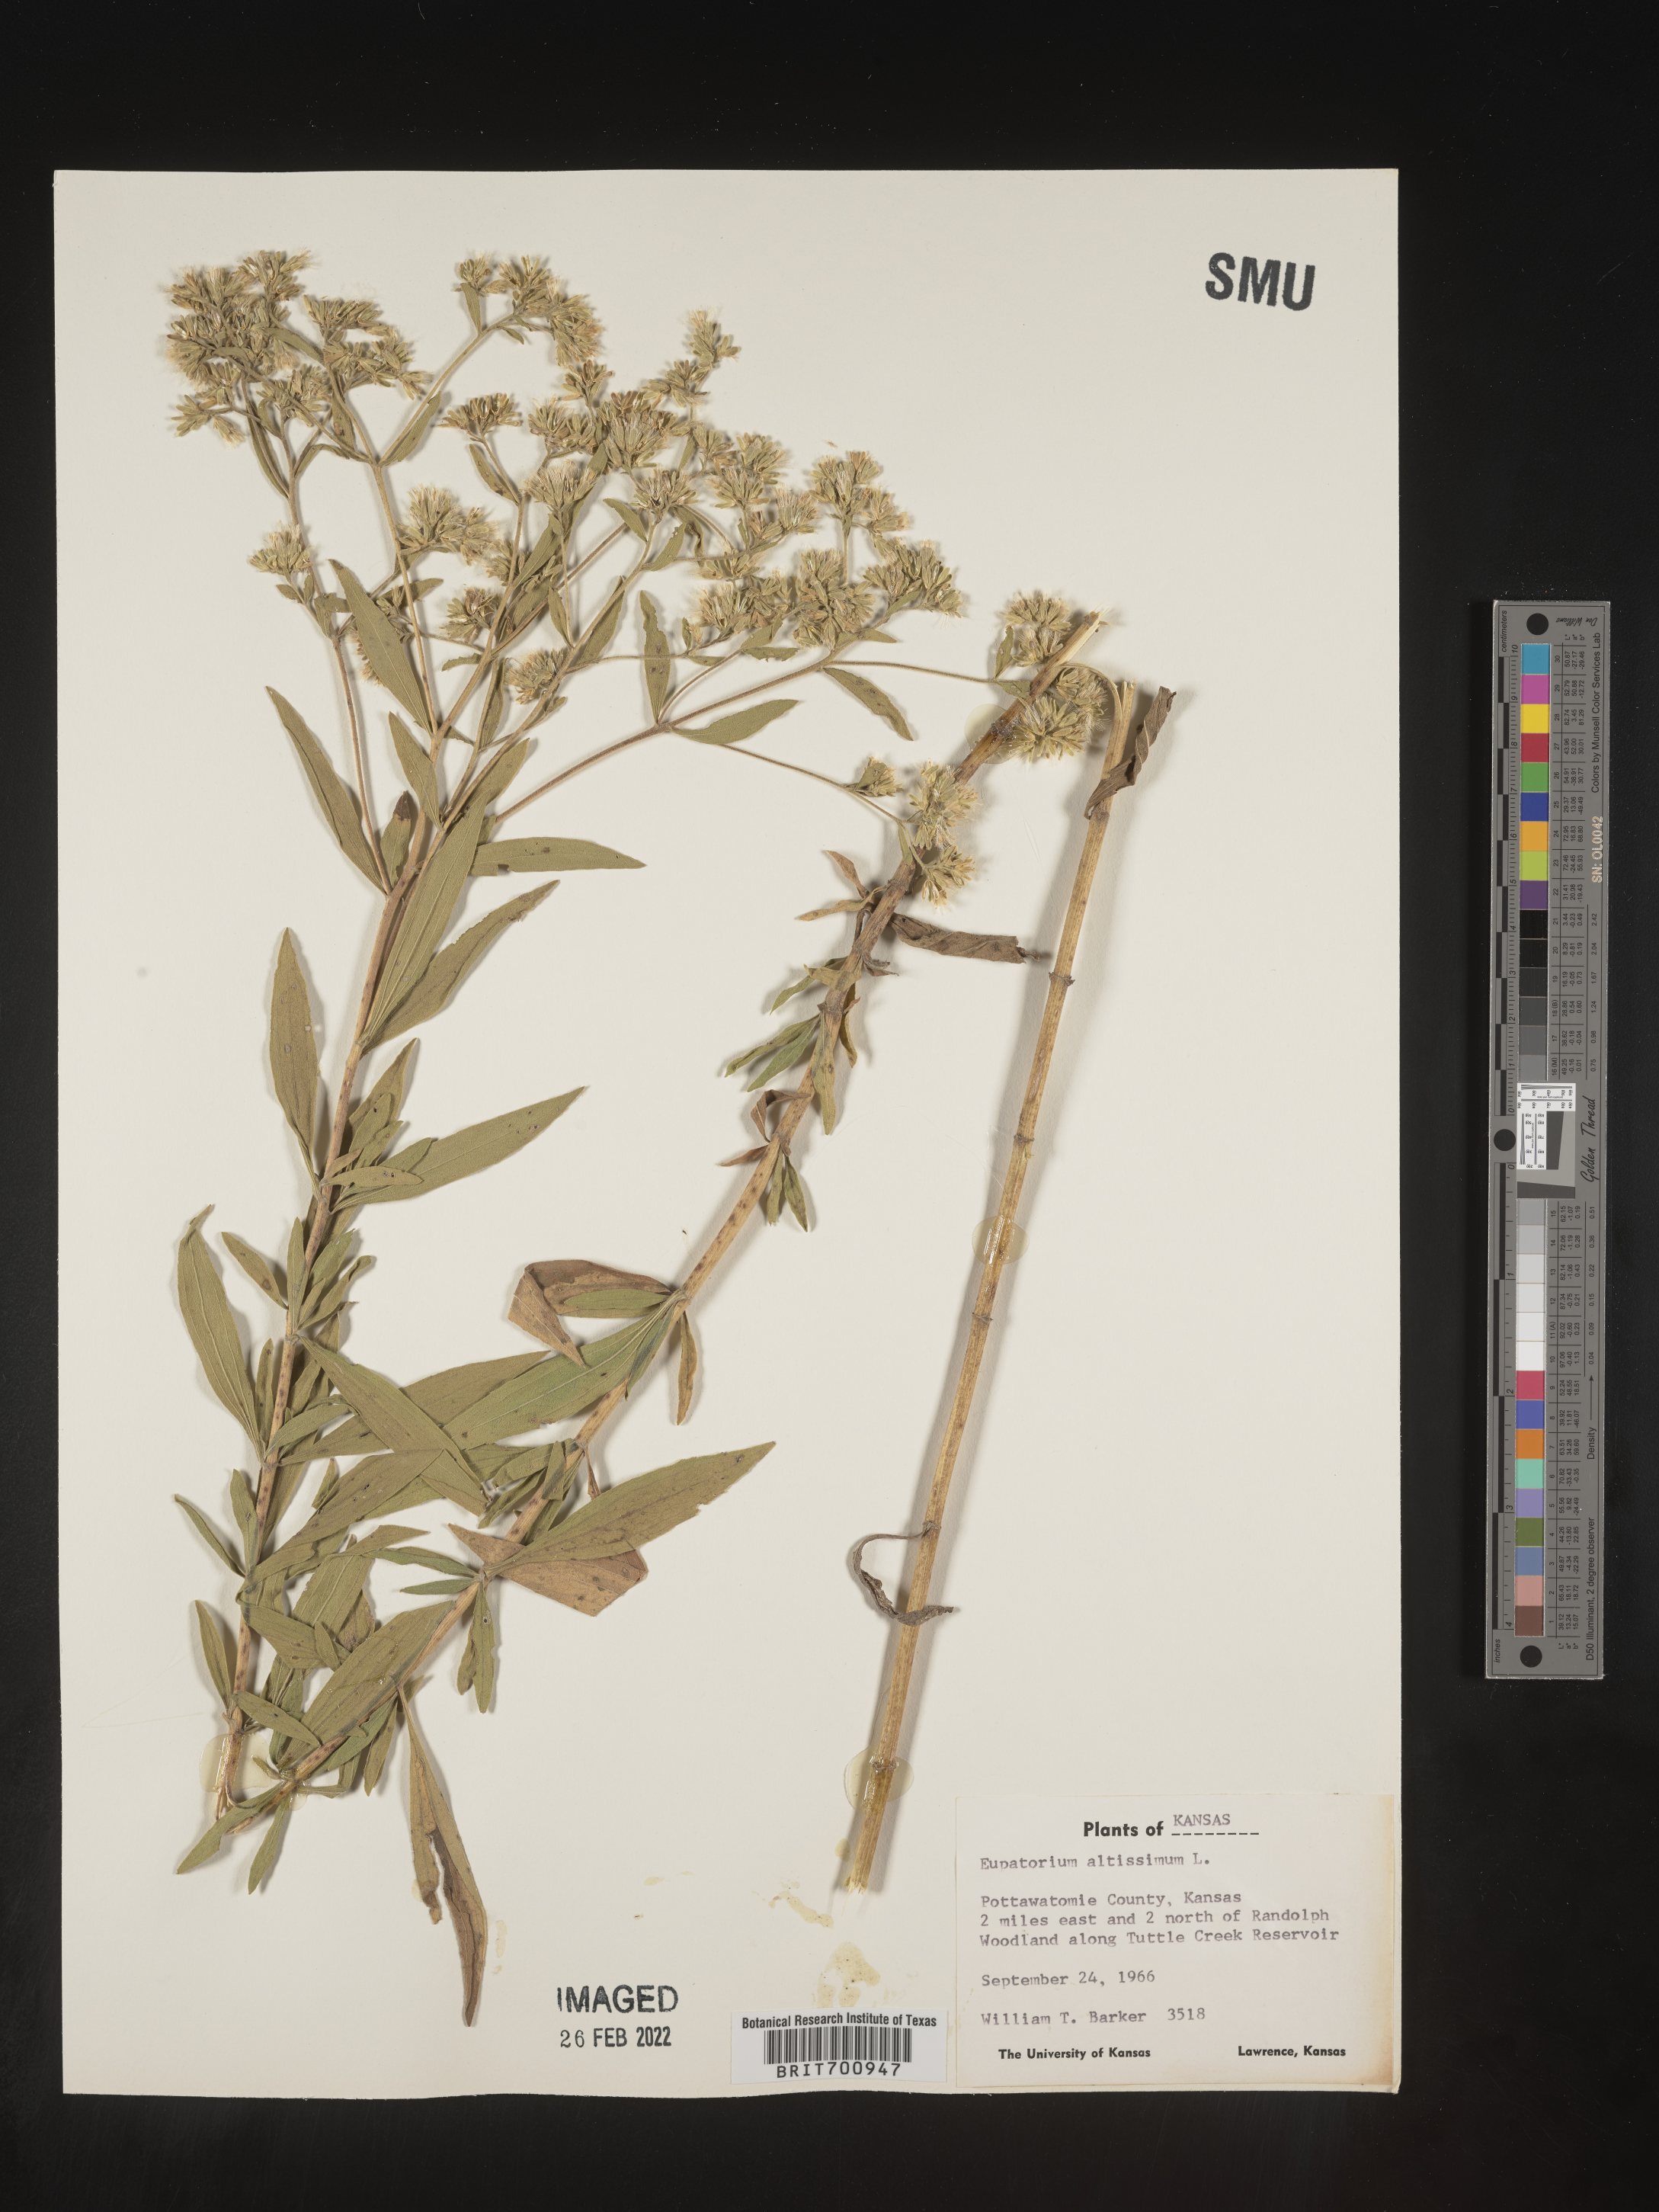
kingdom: Plantae
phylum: Tracheophyta
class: Magnoliopsida
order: Asterales
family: Asteraceae
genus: Eupatorium
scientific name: Eupatorium altissimum
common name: Tall thoroughwort
